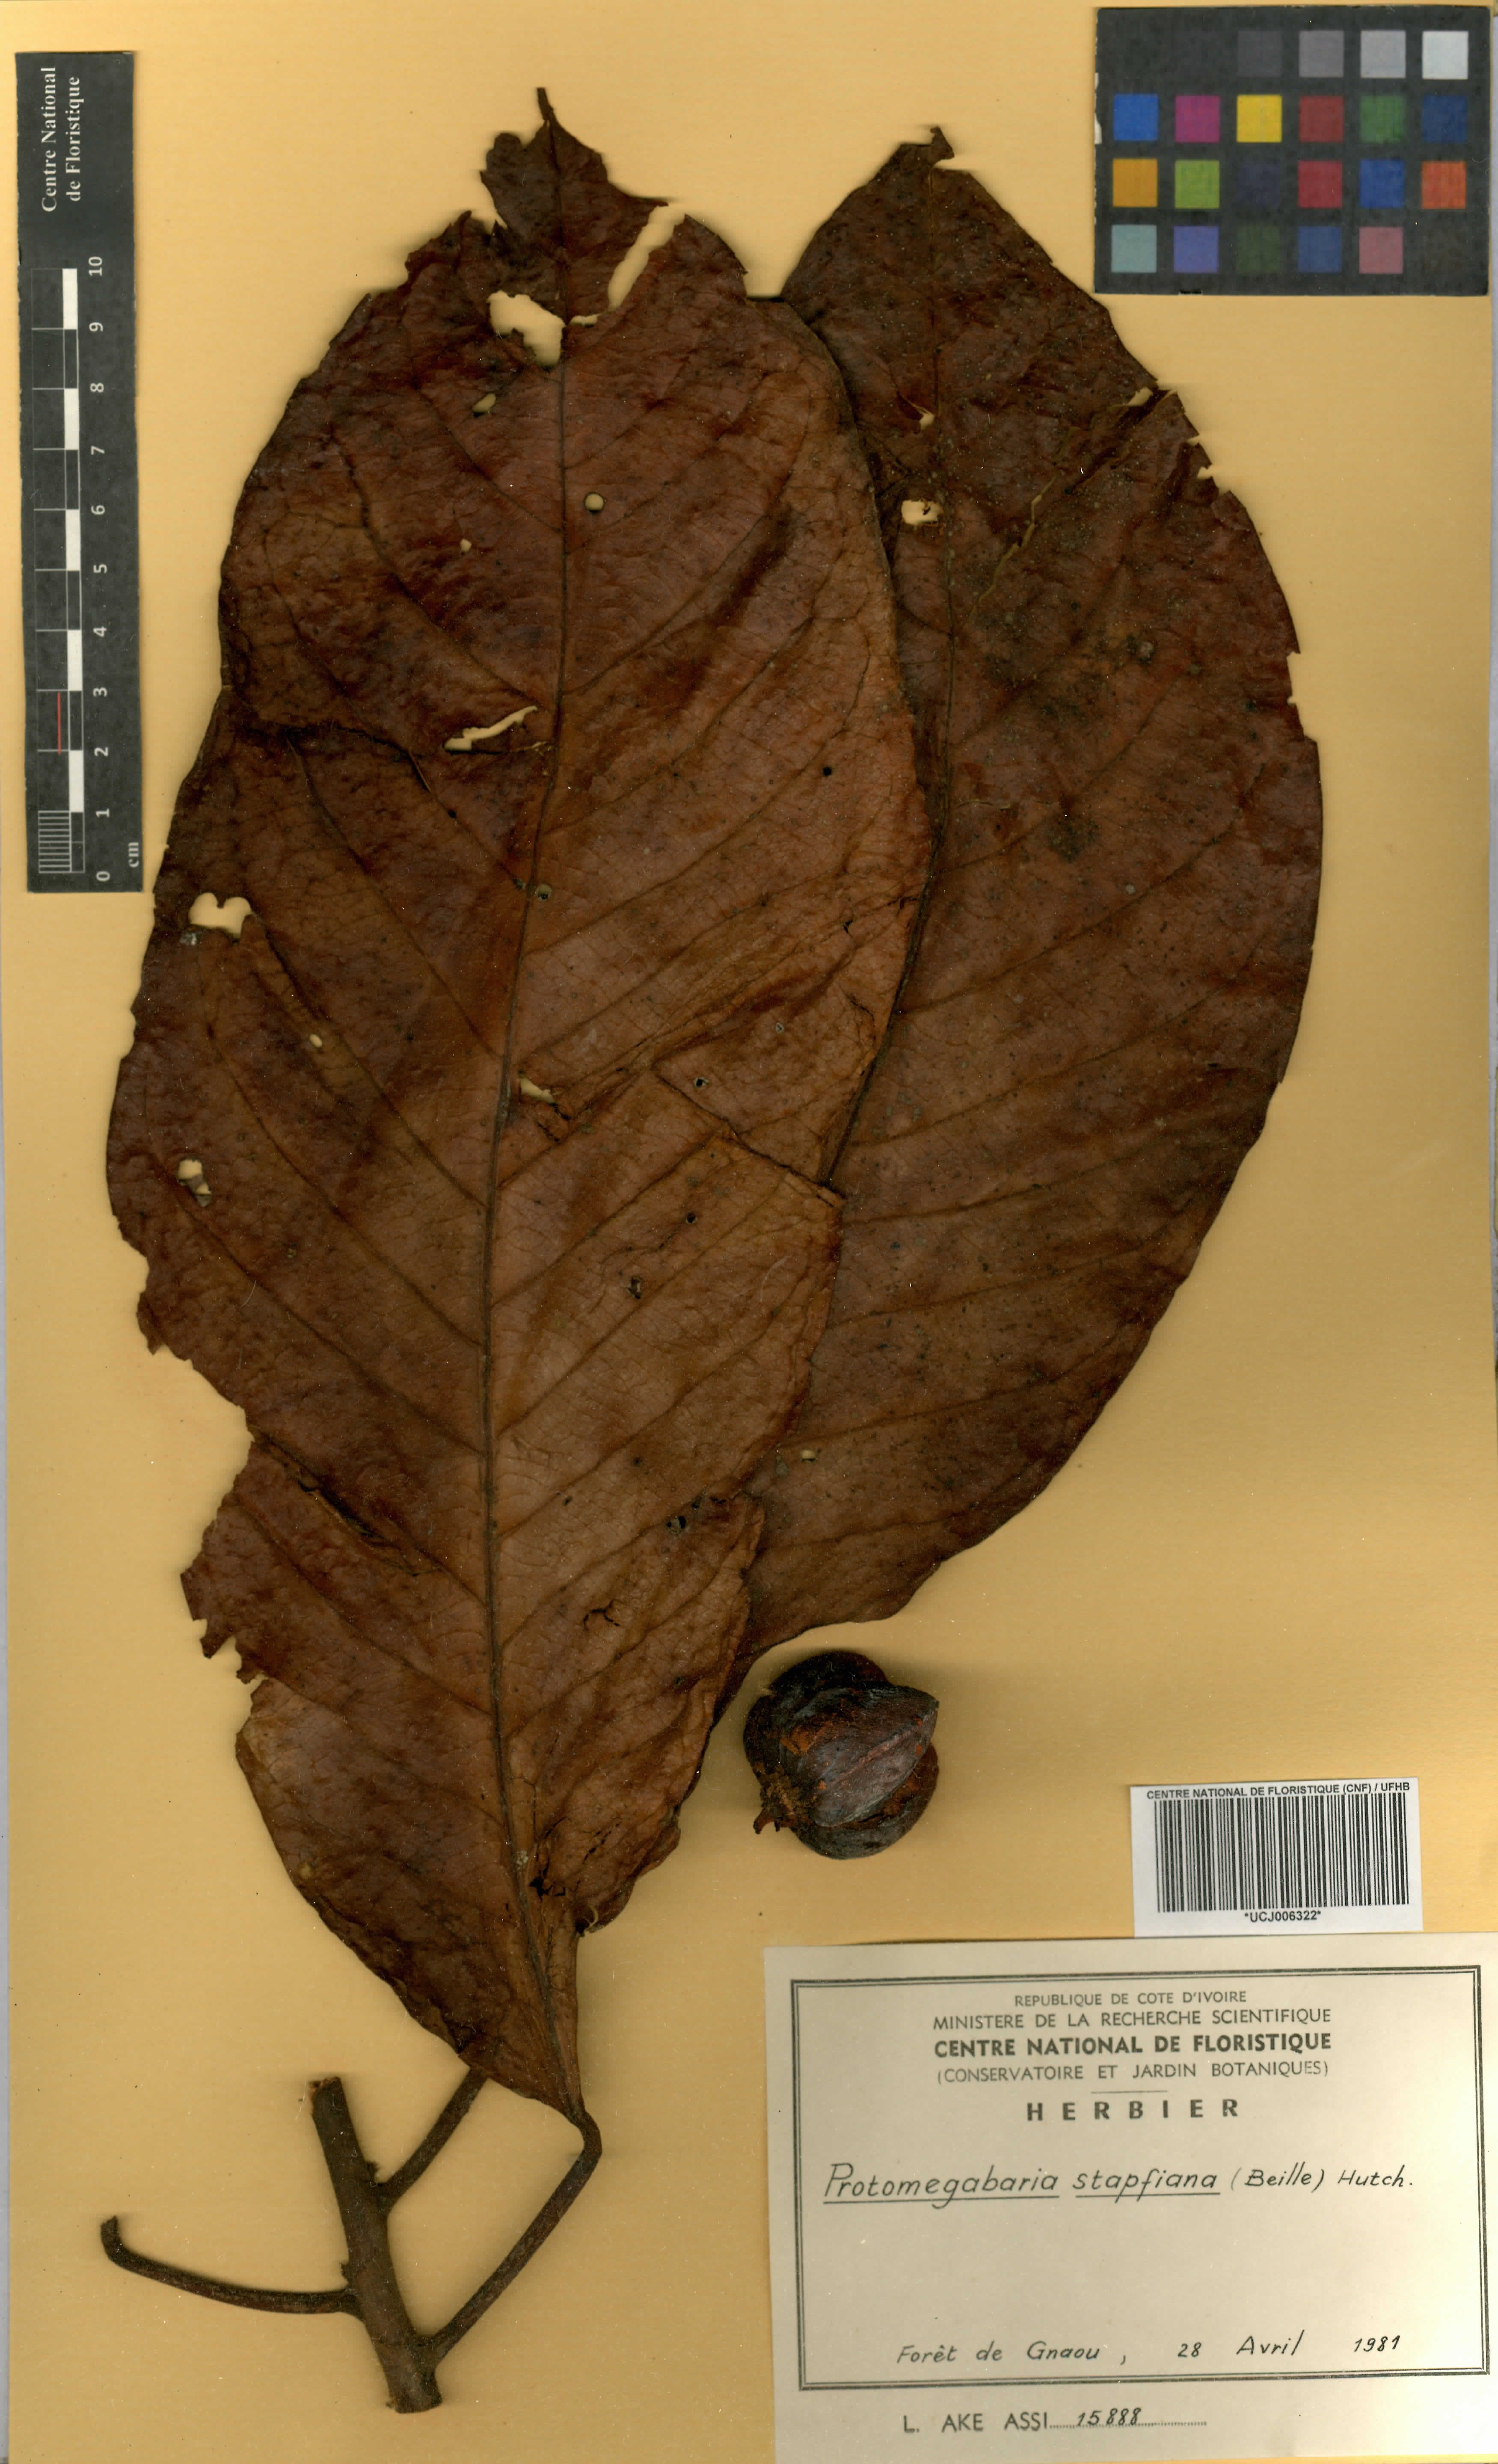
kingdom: Plantae
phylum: Tracheophyta
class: Magnoliopsida
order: Malpighiales
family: Phyllanthaceae
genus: Protomegabaria
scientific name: Protomegabaria stapfiana
